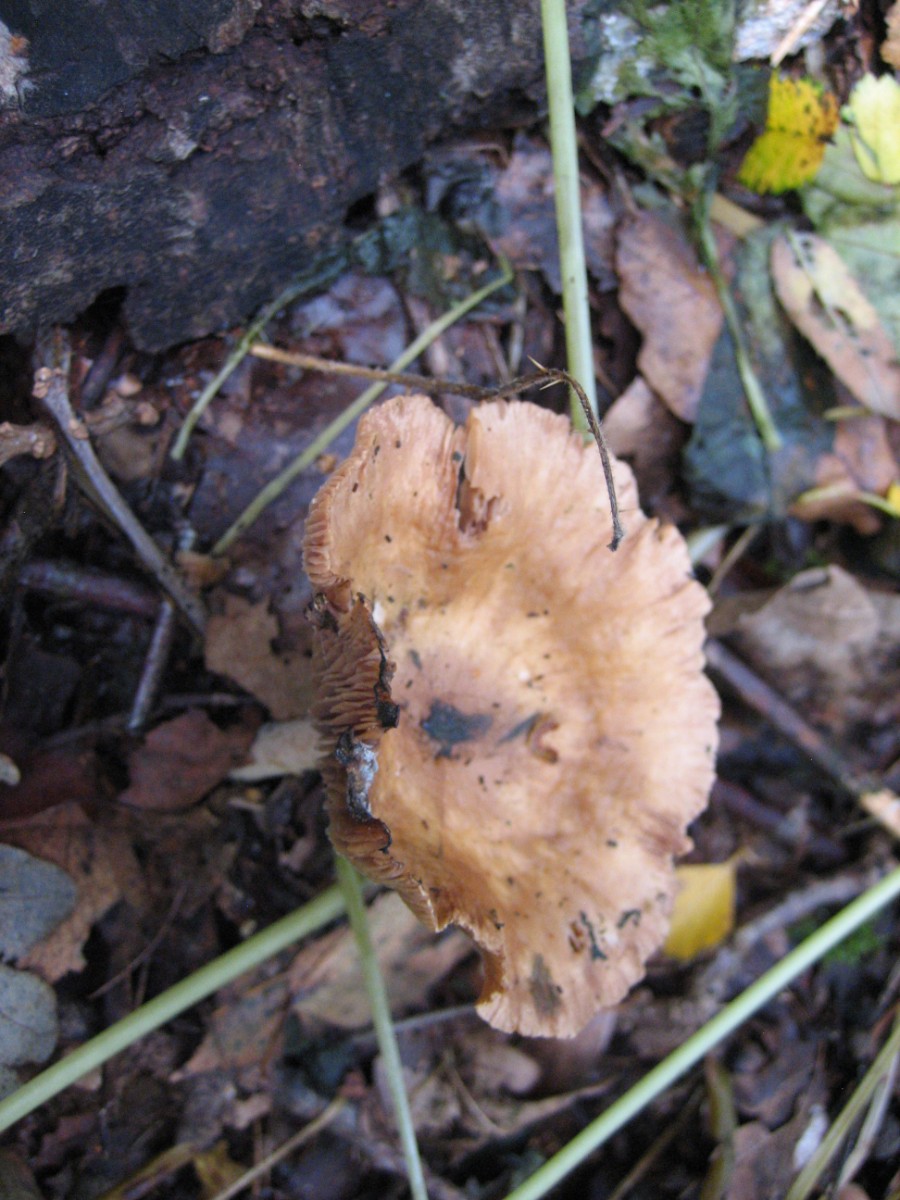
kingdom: Fungi
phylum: Basidiomycota
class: Agaricomycetes
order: Agaricales
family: Omphalotaceae
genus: Collybiopsis
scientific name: Collybiopsis peronata
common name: bestøvlet fladhat
